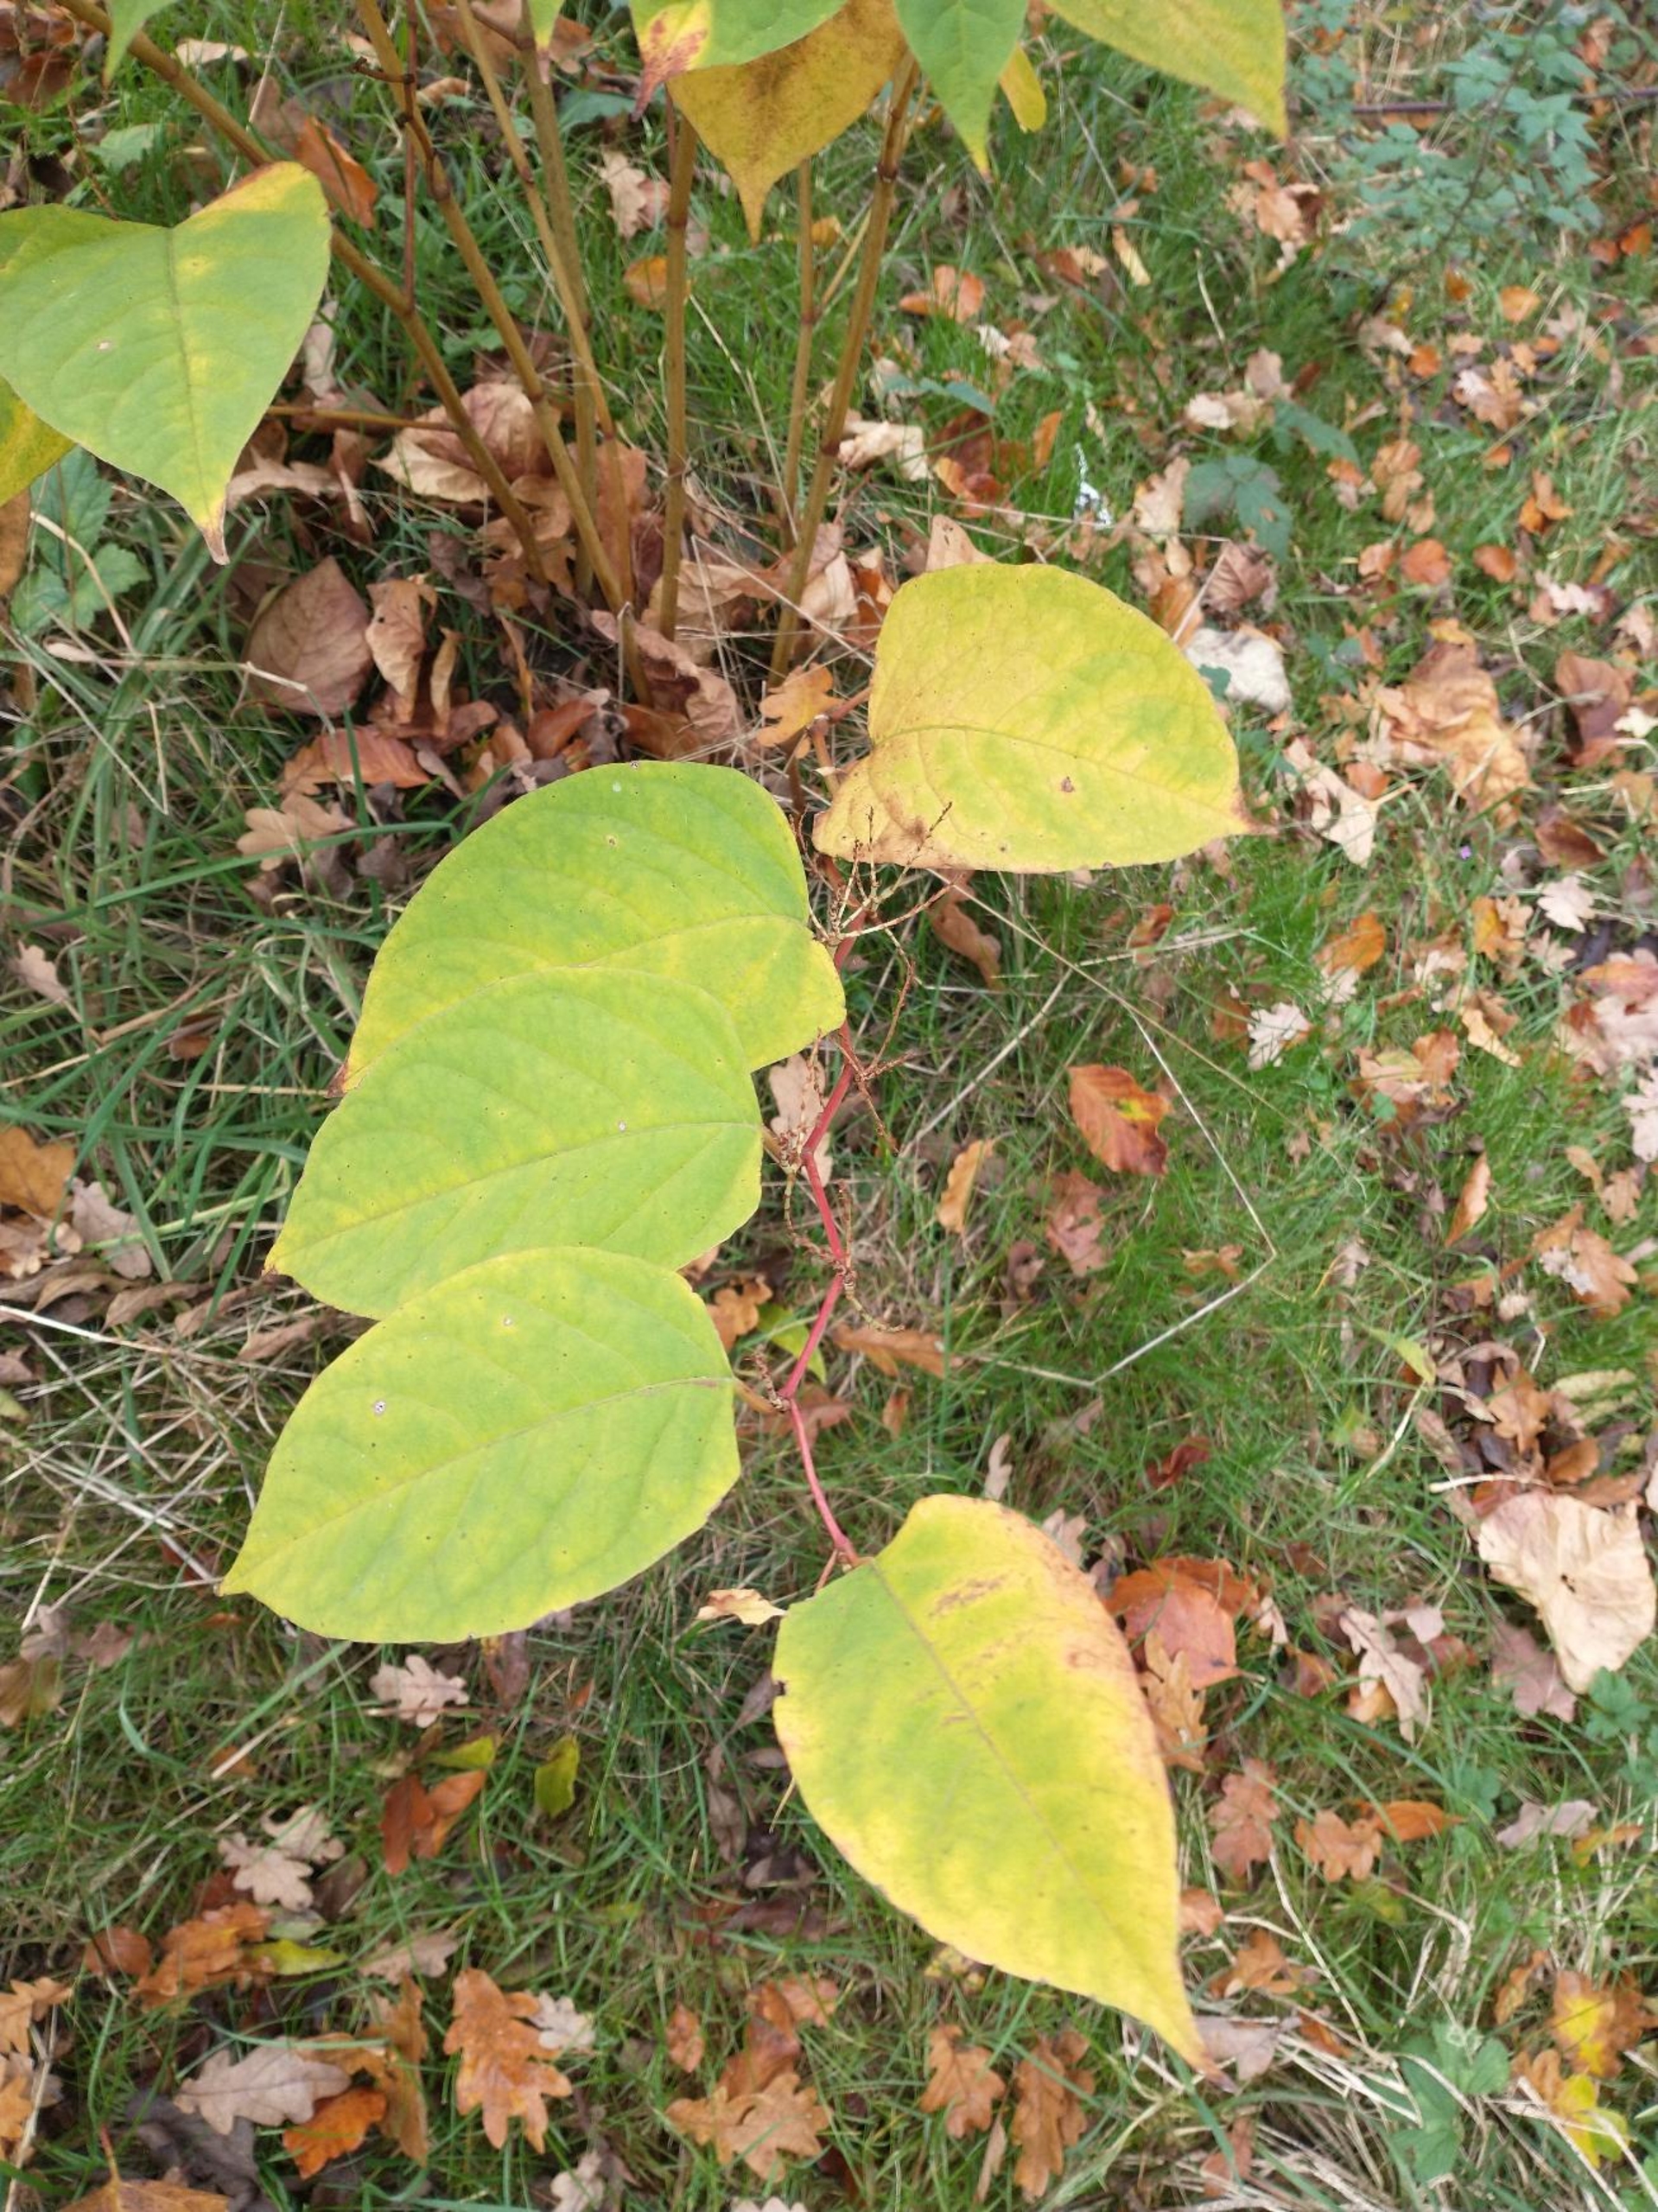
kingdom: Plantae
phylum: Tracheophyta
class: Magnoliopsida
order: Caryophyllales
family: Polygonaceae
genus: Reynoutria
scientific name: Reynoutria japonica
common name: Japan-pileurt
